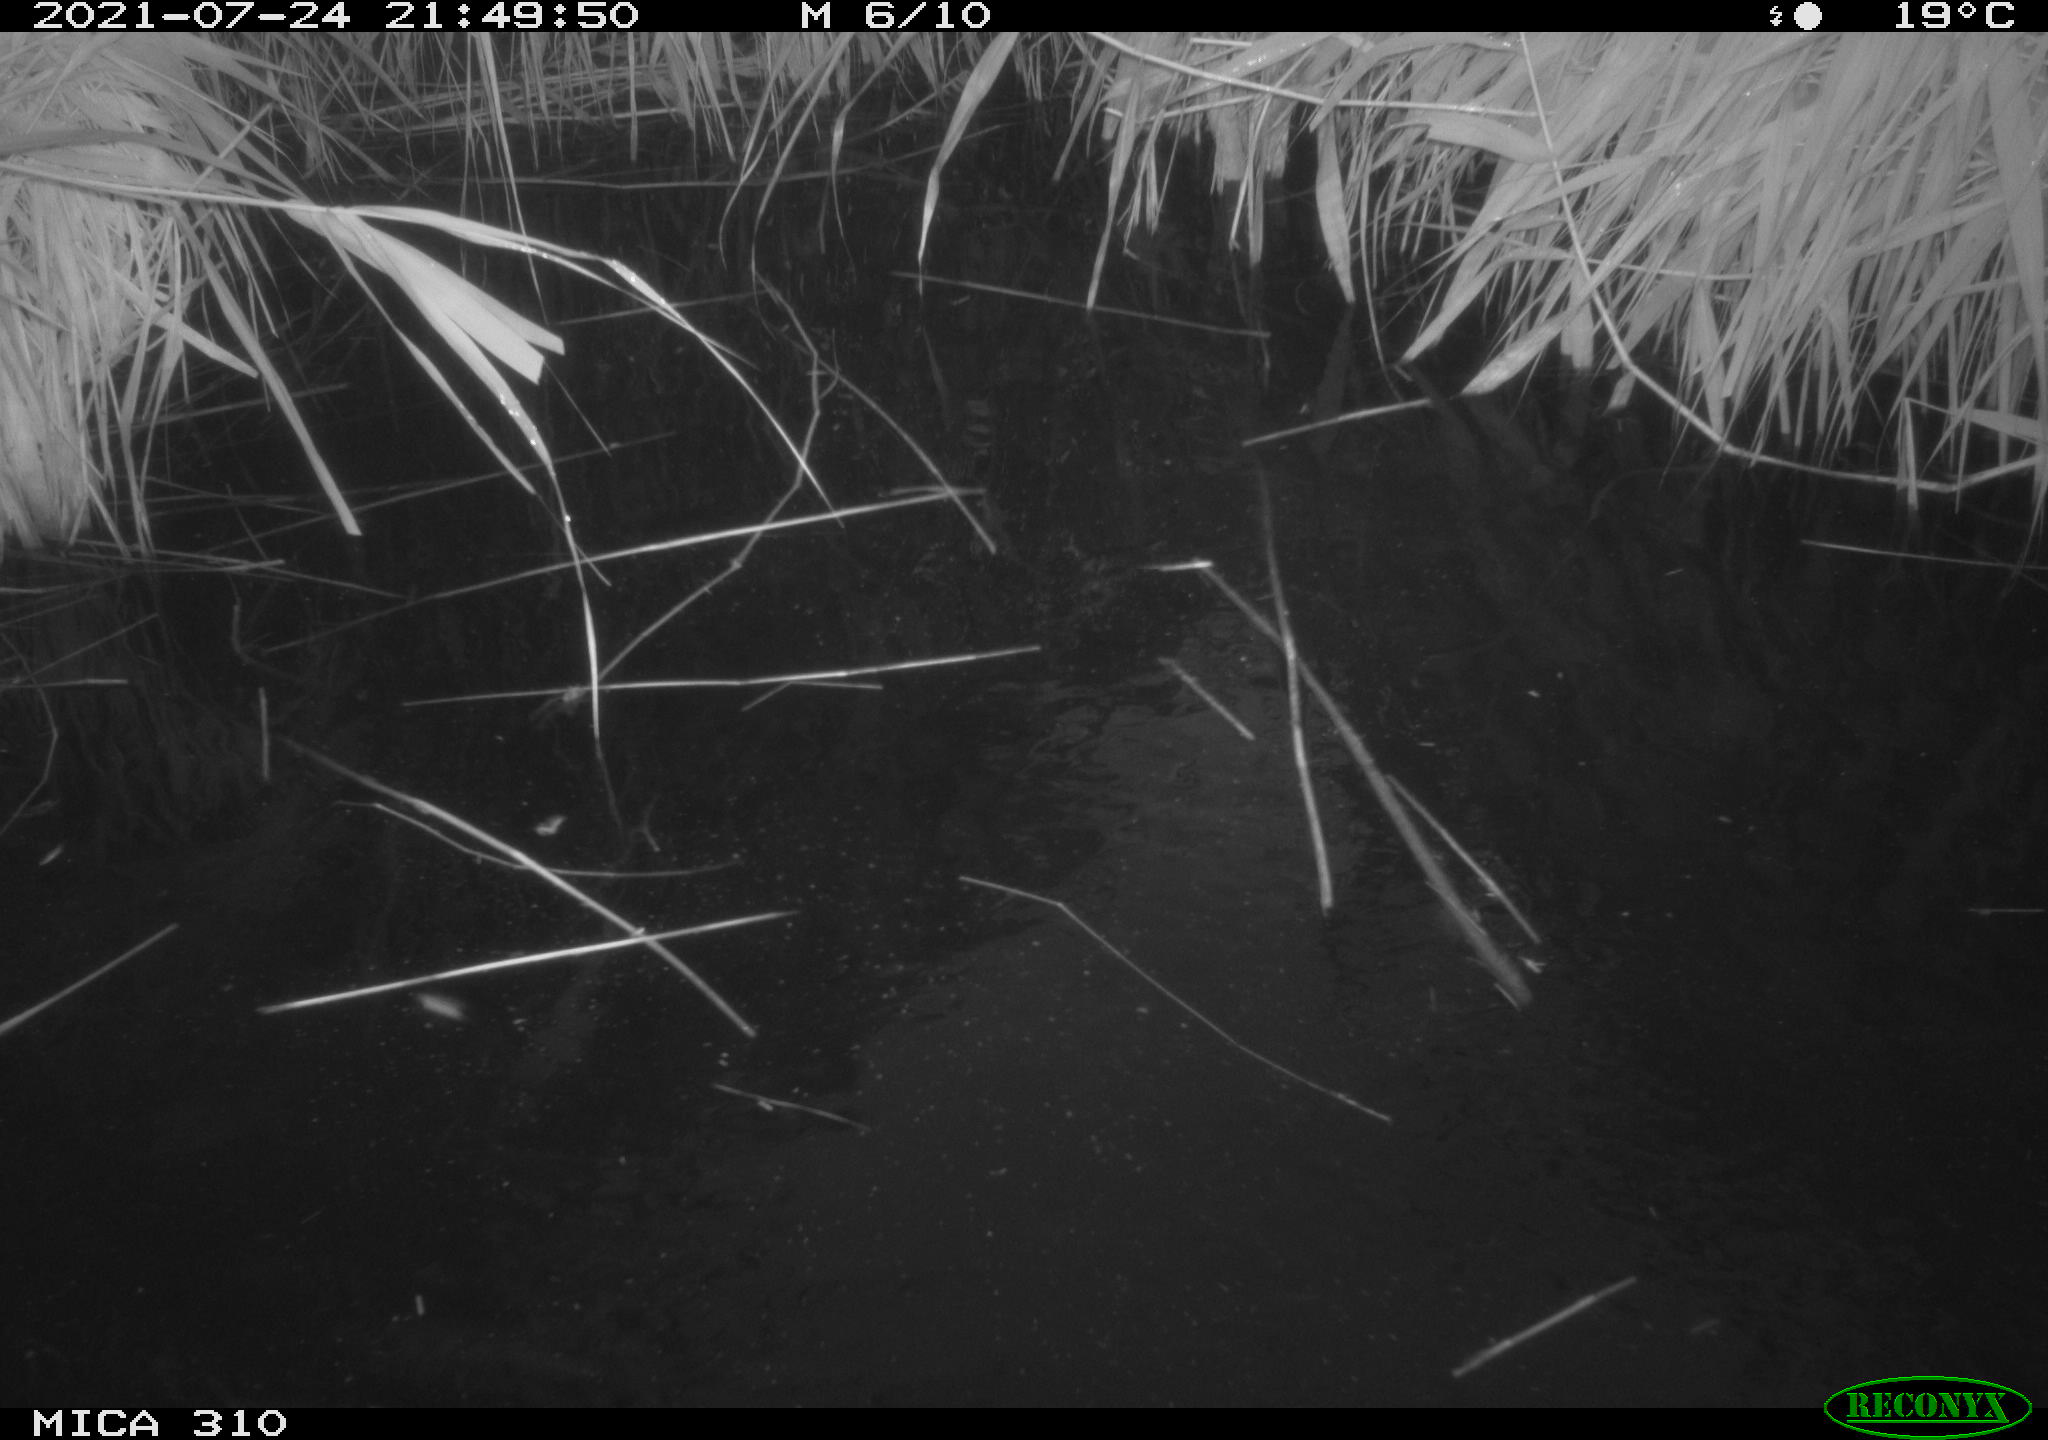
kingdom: Animalia
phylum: Chordata
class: Aves
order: Anseriformes
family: Anatidae
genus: Anas
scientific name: Anas platyrhynchos
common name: Mallard
